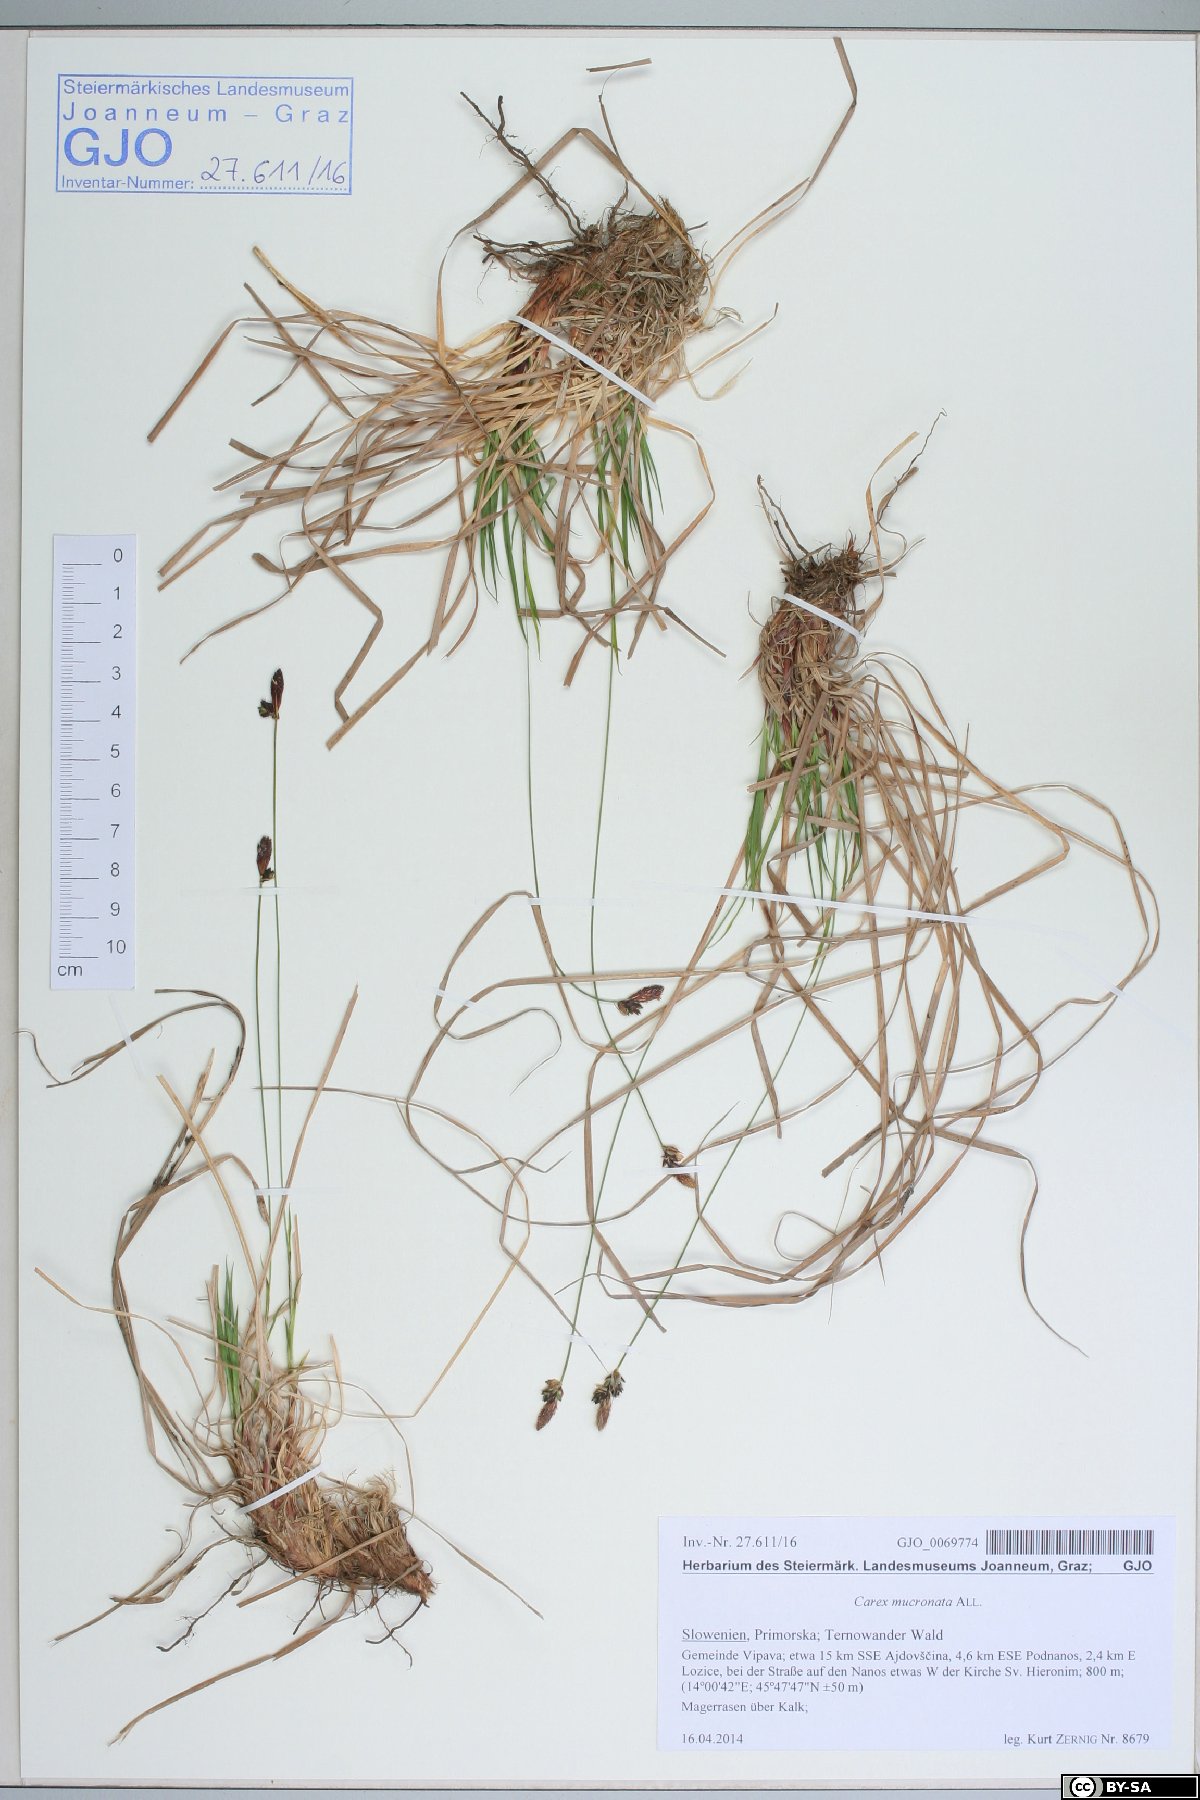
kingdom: Plantae
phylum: Tracheophyta
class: Liliopsida
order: Poales
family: Cyperaceae
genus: Carex
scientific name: Carex mucronata
